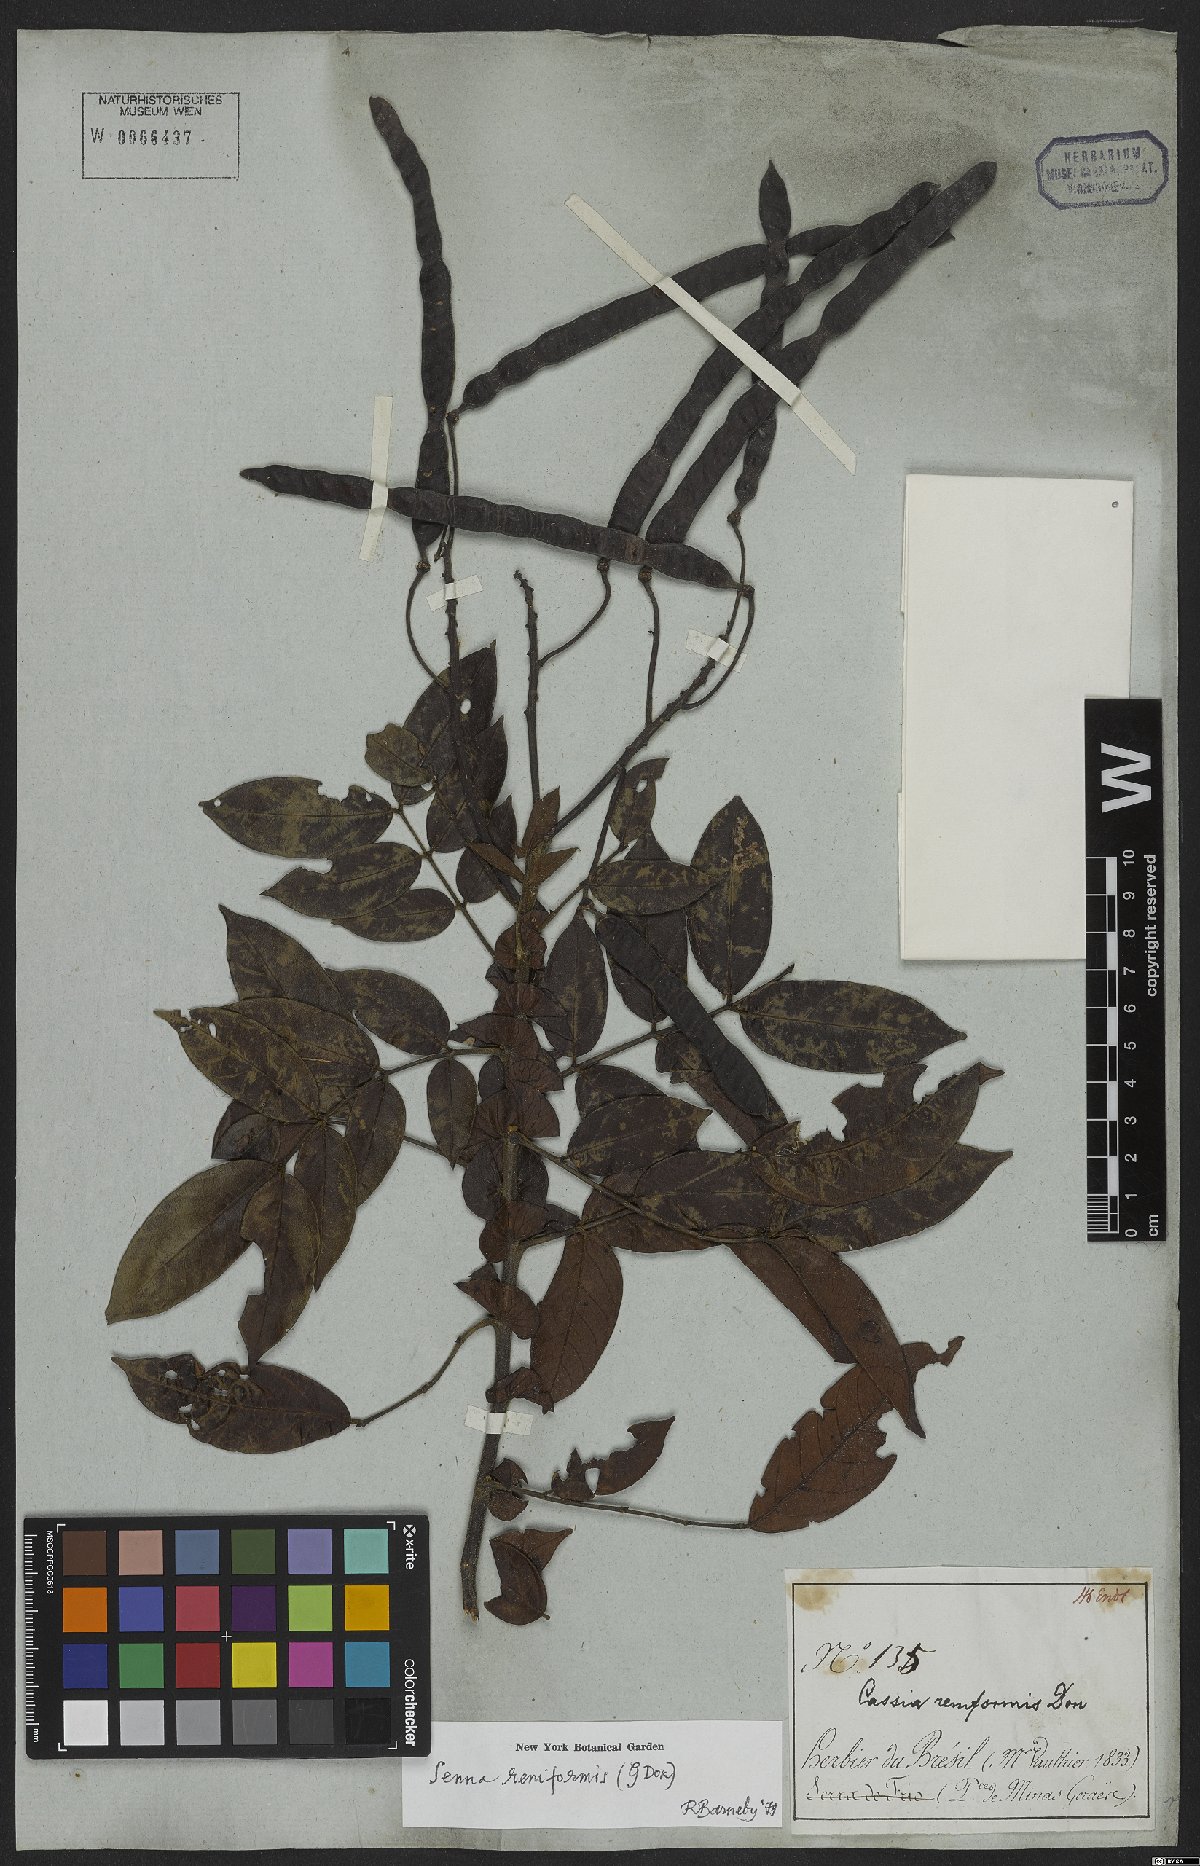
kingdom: Plantae
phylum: Tracheophyta
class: Magnoliopsida
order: Fabales
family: Fabaceae
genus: Senna
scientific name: Senna reniformis
